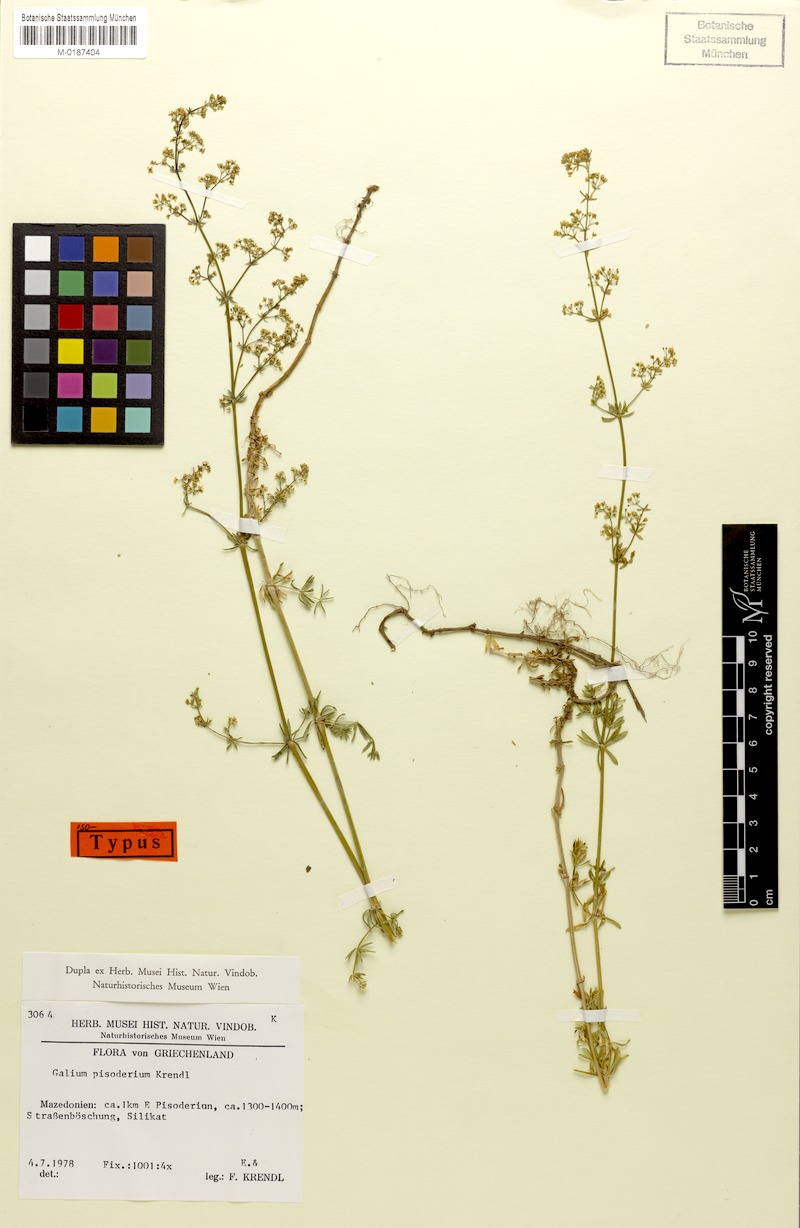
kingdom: Plantae
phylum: Tracheophyta
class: Magnoliopsida
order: Gentianales
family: Rubiaceae
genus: Galium
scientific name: Galium pisoderium
